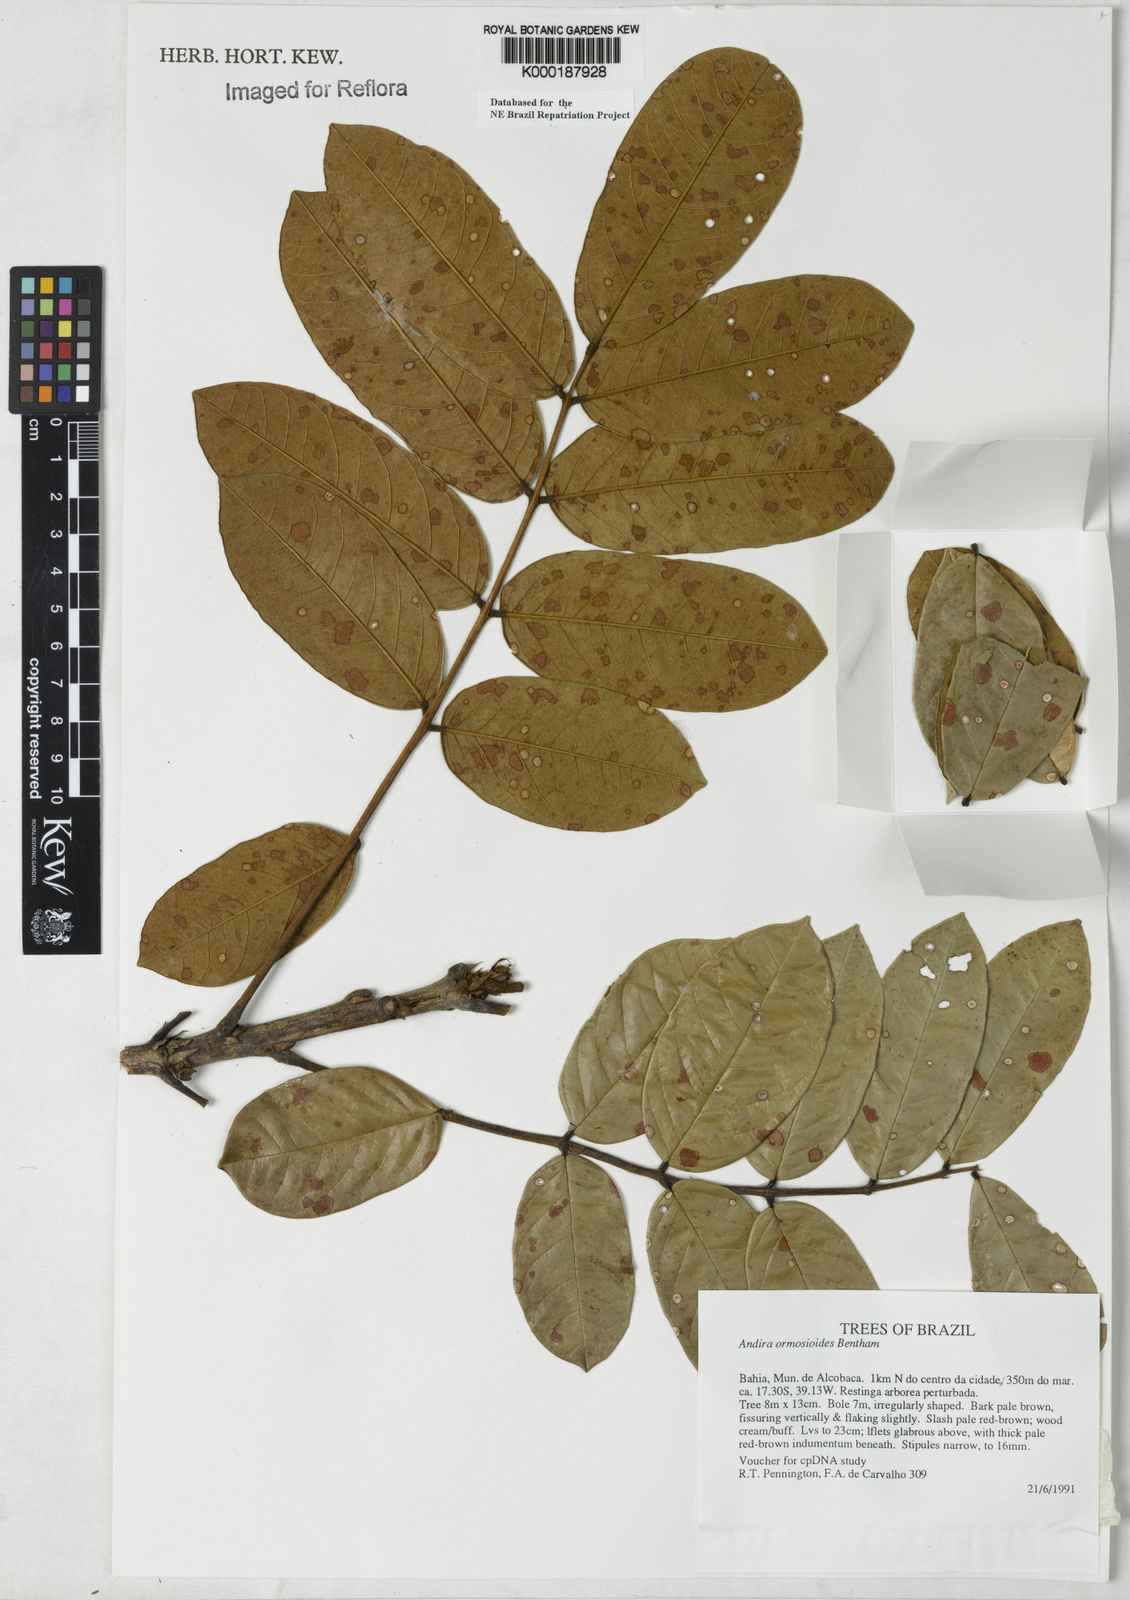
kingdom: Plantae
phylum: Tracheophyta
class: Magnoliopsida
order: Fabales
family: Fabaceae
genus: Andira
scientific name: Andira ormosioides
